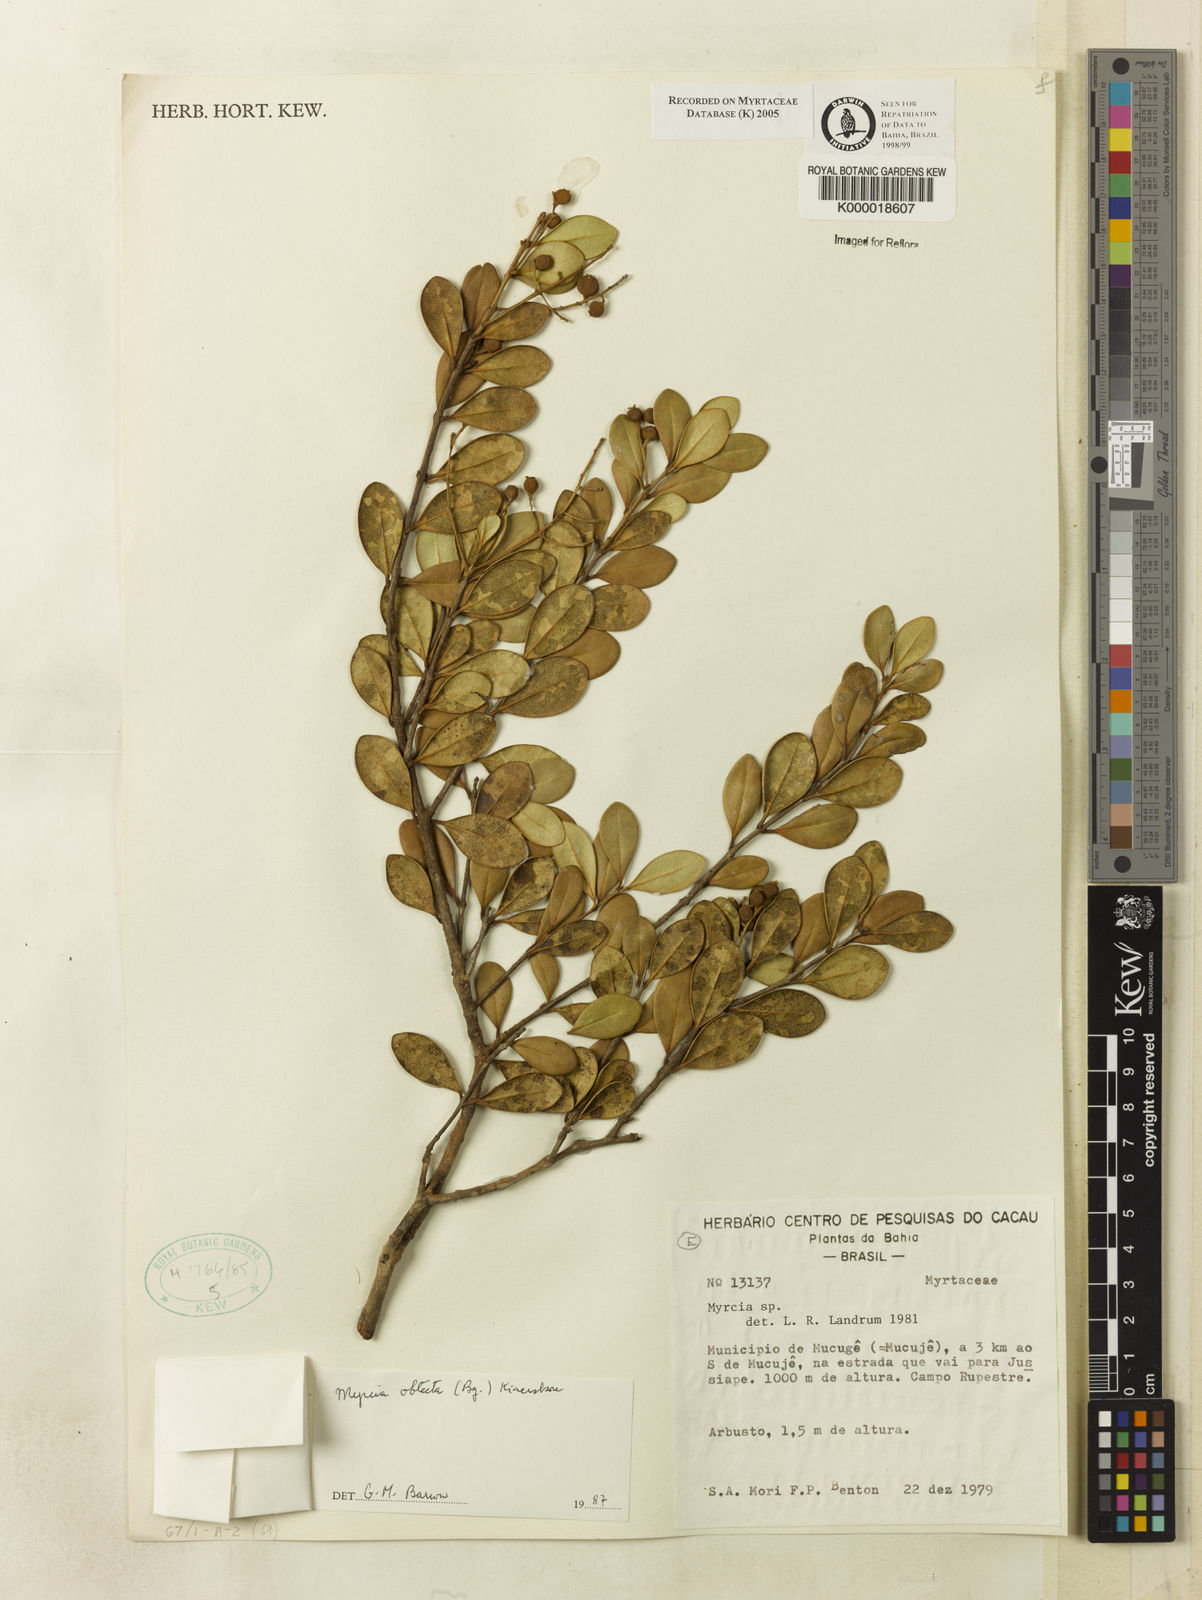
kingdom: Plantae
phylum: Tracheophyta
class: Magnoliopsida
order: Myrtales
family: Myrtaceae
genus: Myrcia
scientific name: Myrcia guianensis
